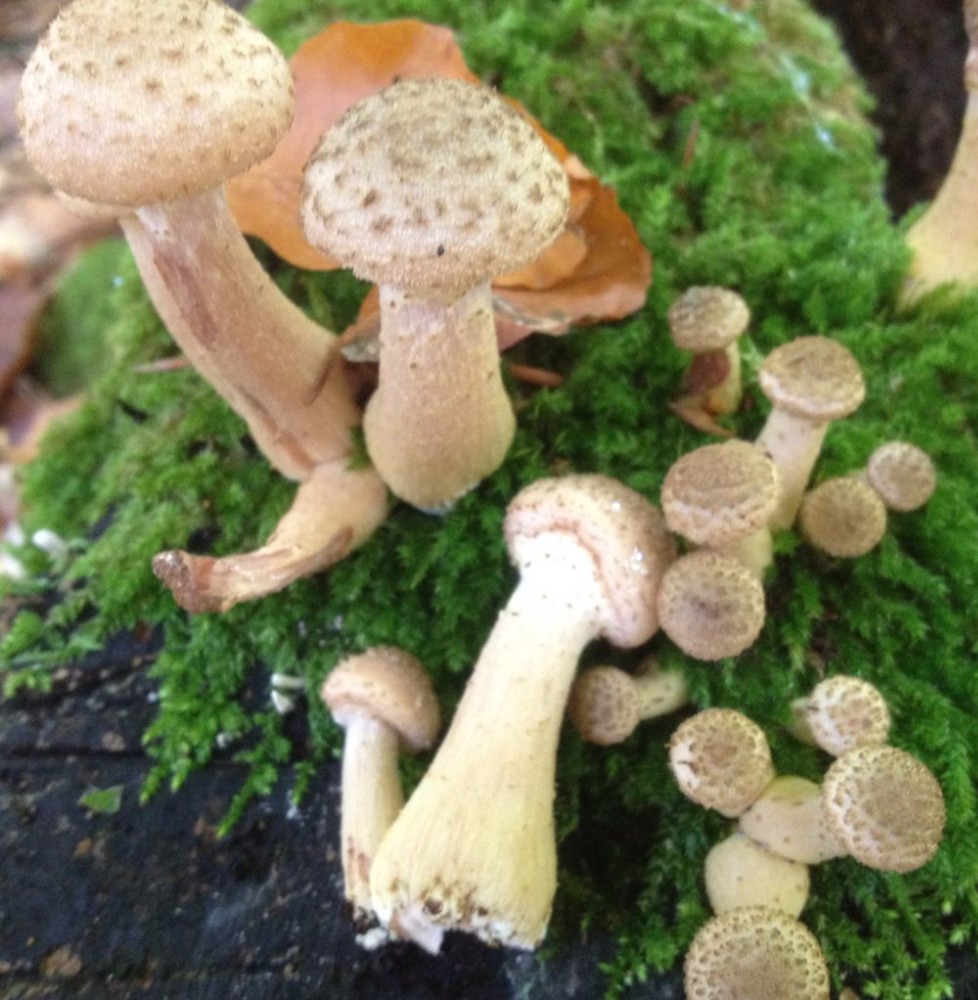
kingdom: Fungi
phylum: Basidiomycota
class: Agaricomycetes
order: Agaricales
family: Physalacriaceae
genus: Armillaria
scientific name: Armillaria lutea
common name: køllestokket honningsvamp
